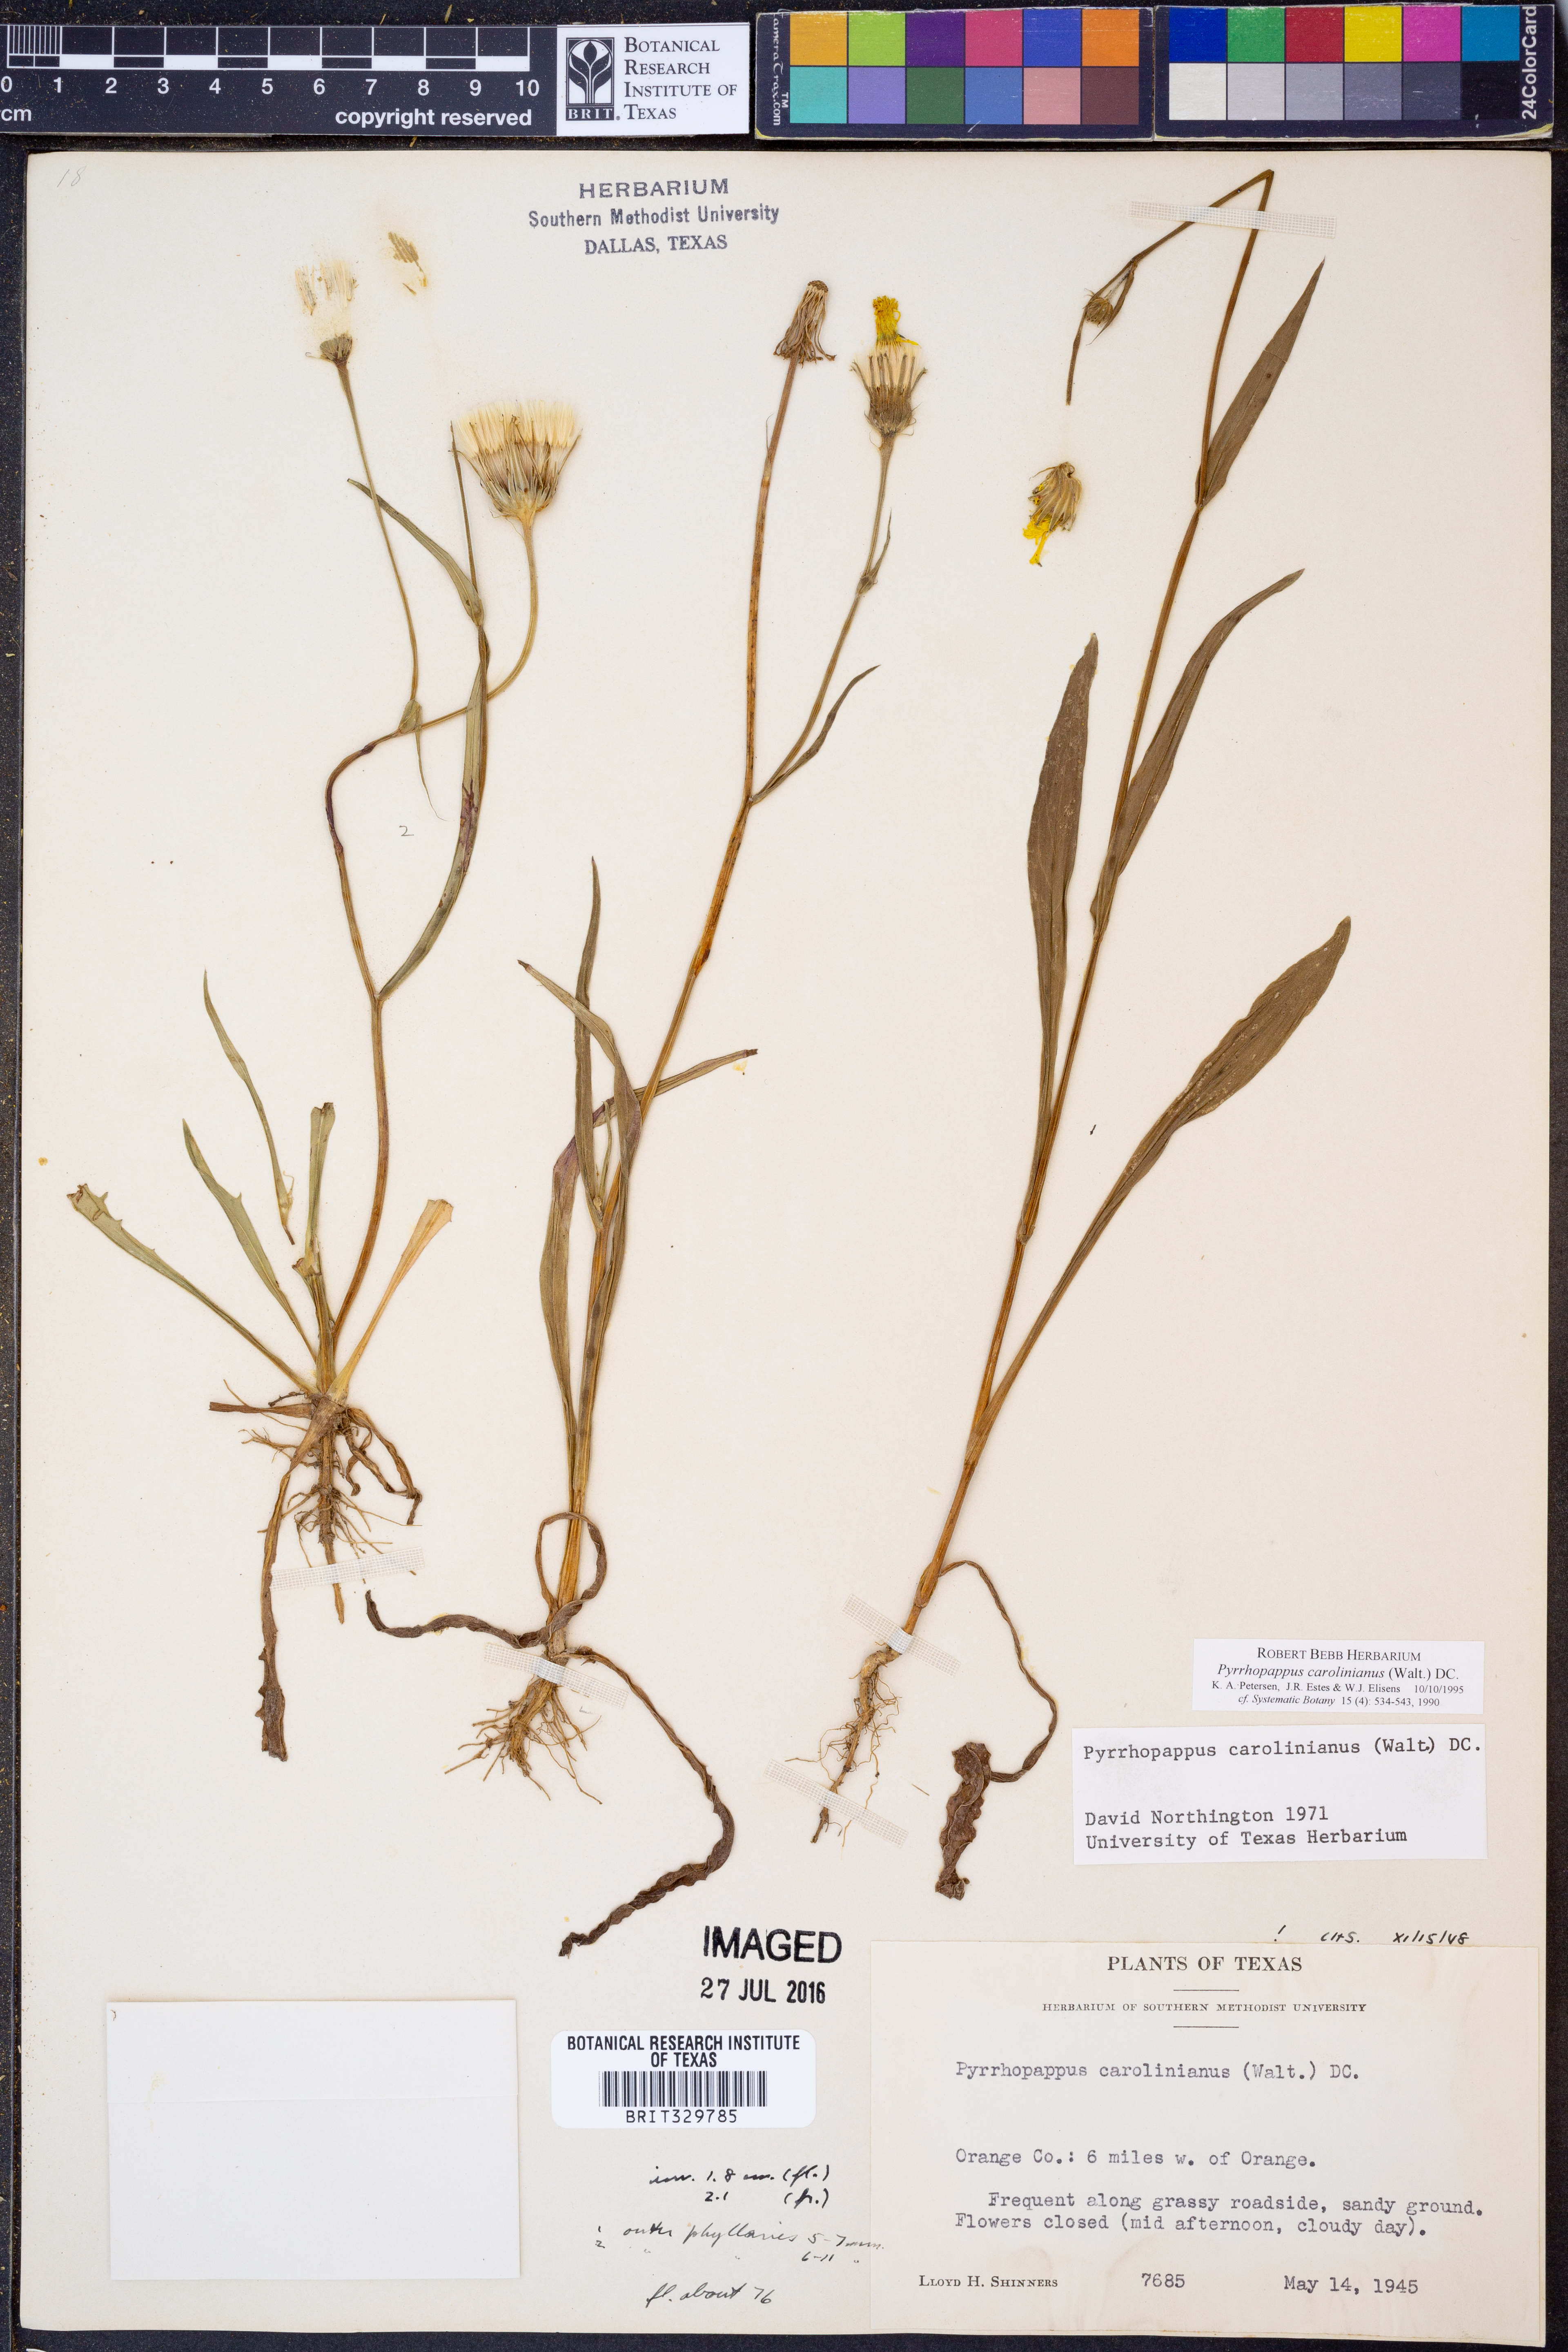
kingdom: Plantae
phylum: Tracheophyta
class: Magnoliopsida
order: Asterales
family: Asteraceae
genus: Pyrrhopappus
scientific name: Pyrrhopappus carolinianus
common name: Carolina desert-chicory
